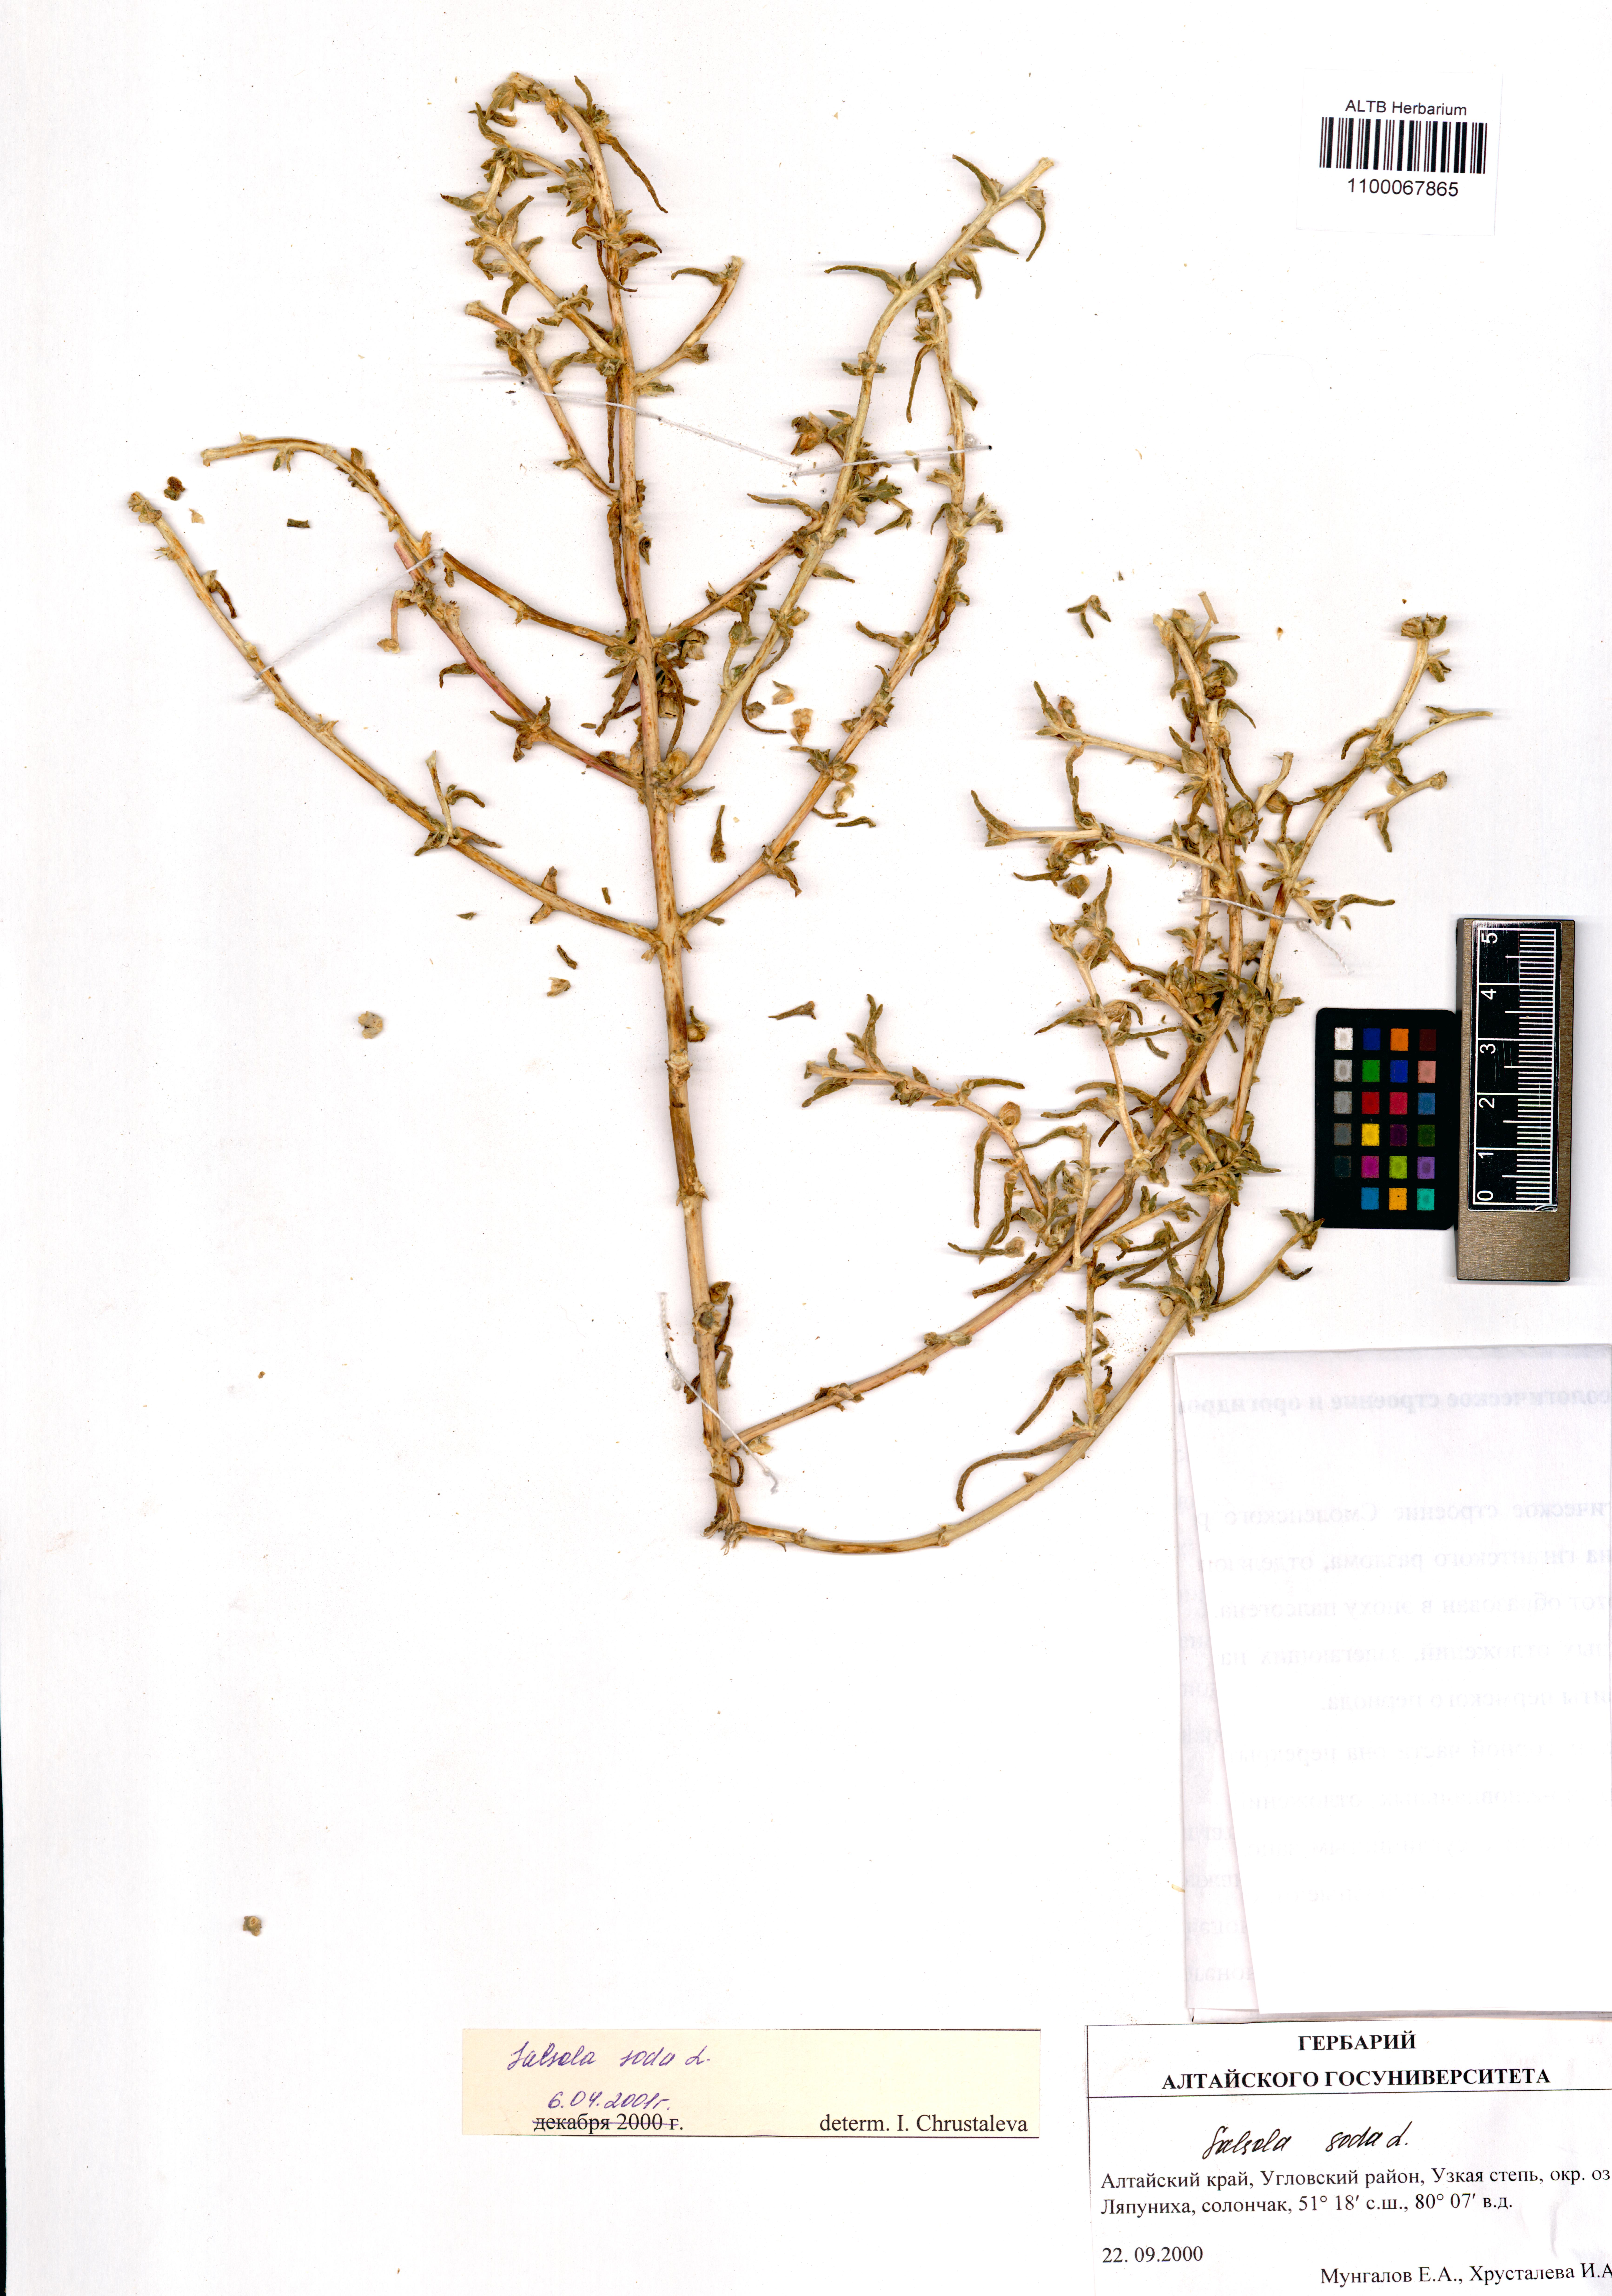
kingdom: Plantae
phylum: Tracheophyta
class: Magnoliopsida
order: Caryophyllales
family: Amaranthaceae
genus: Soda
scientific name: Soda inermis
